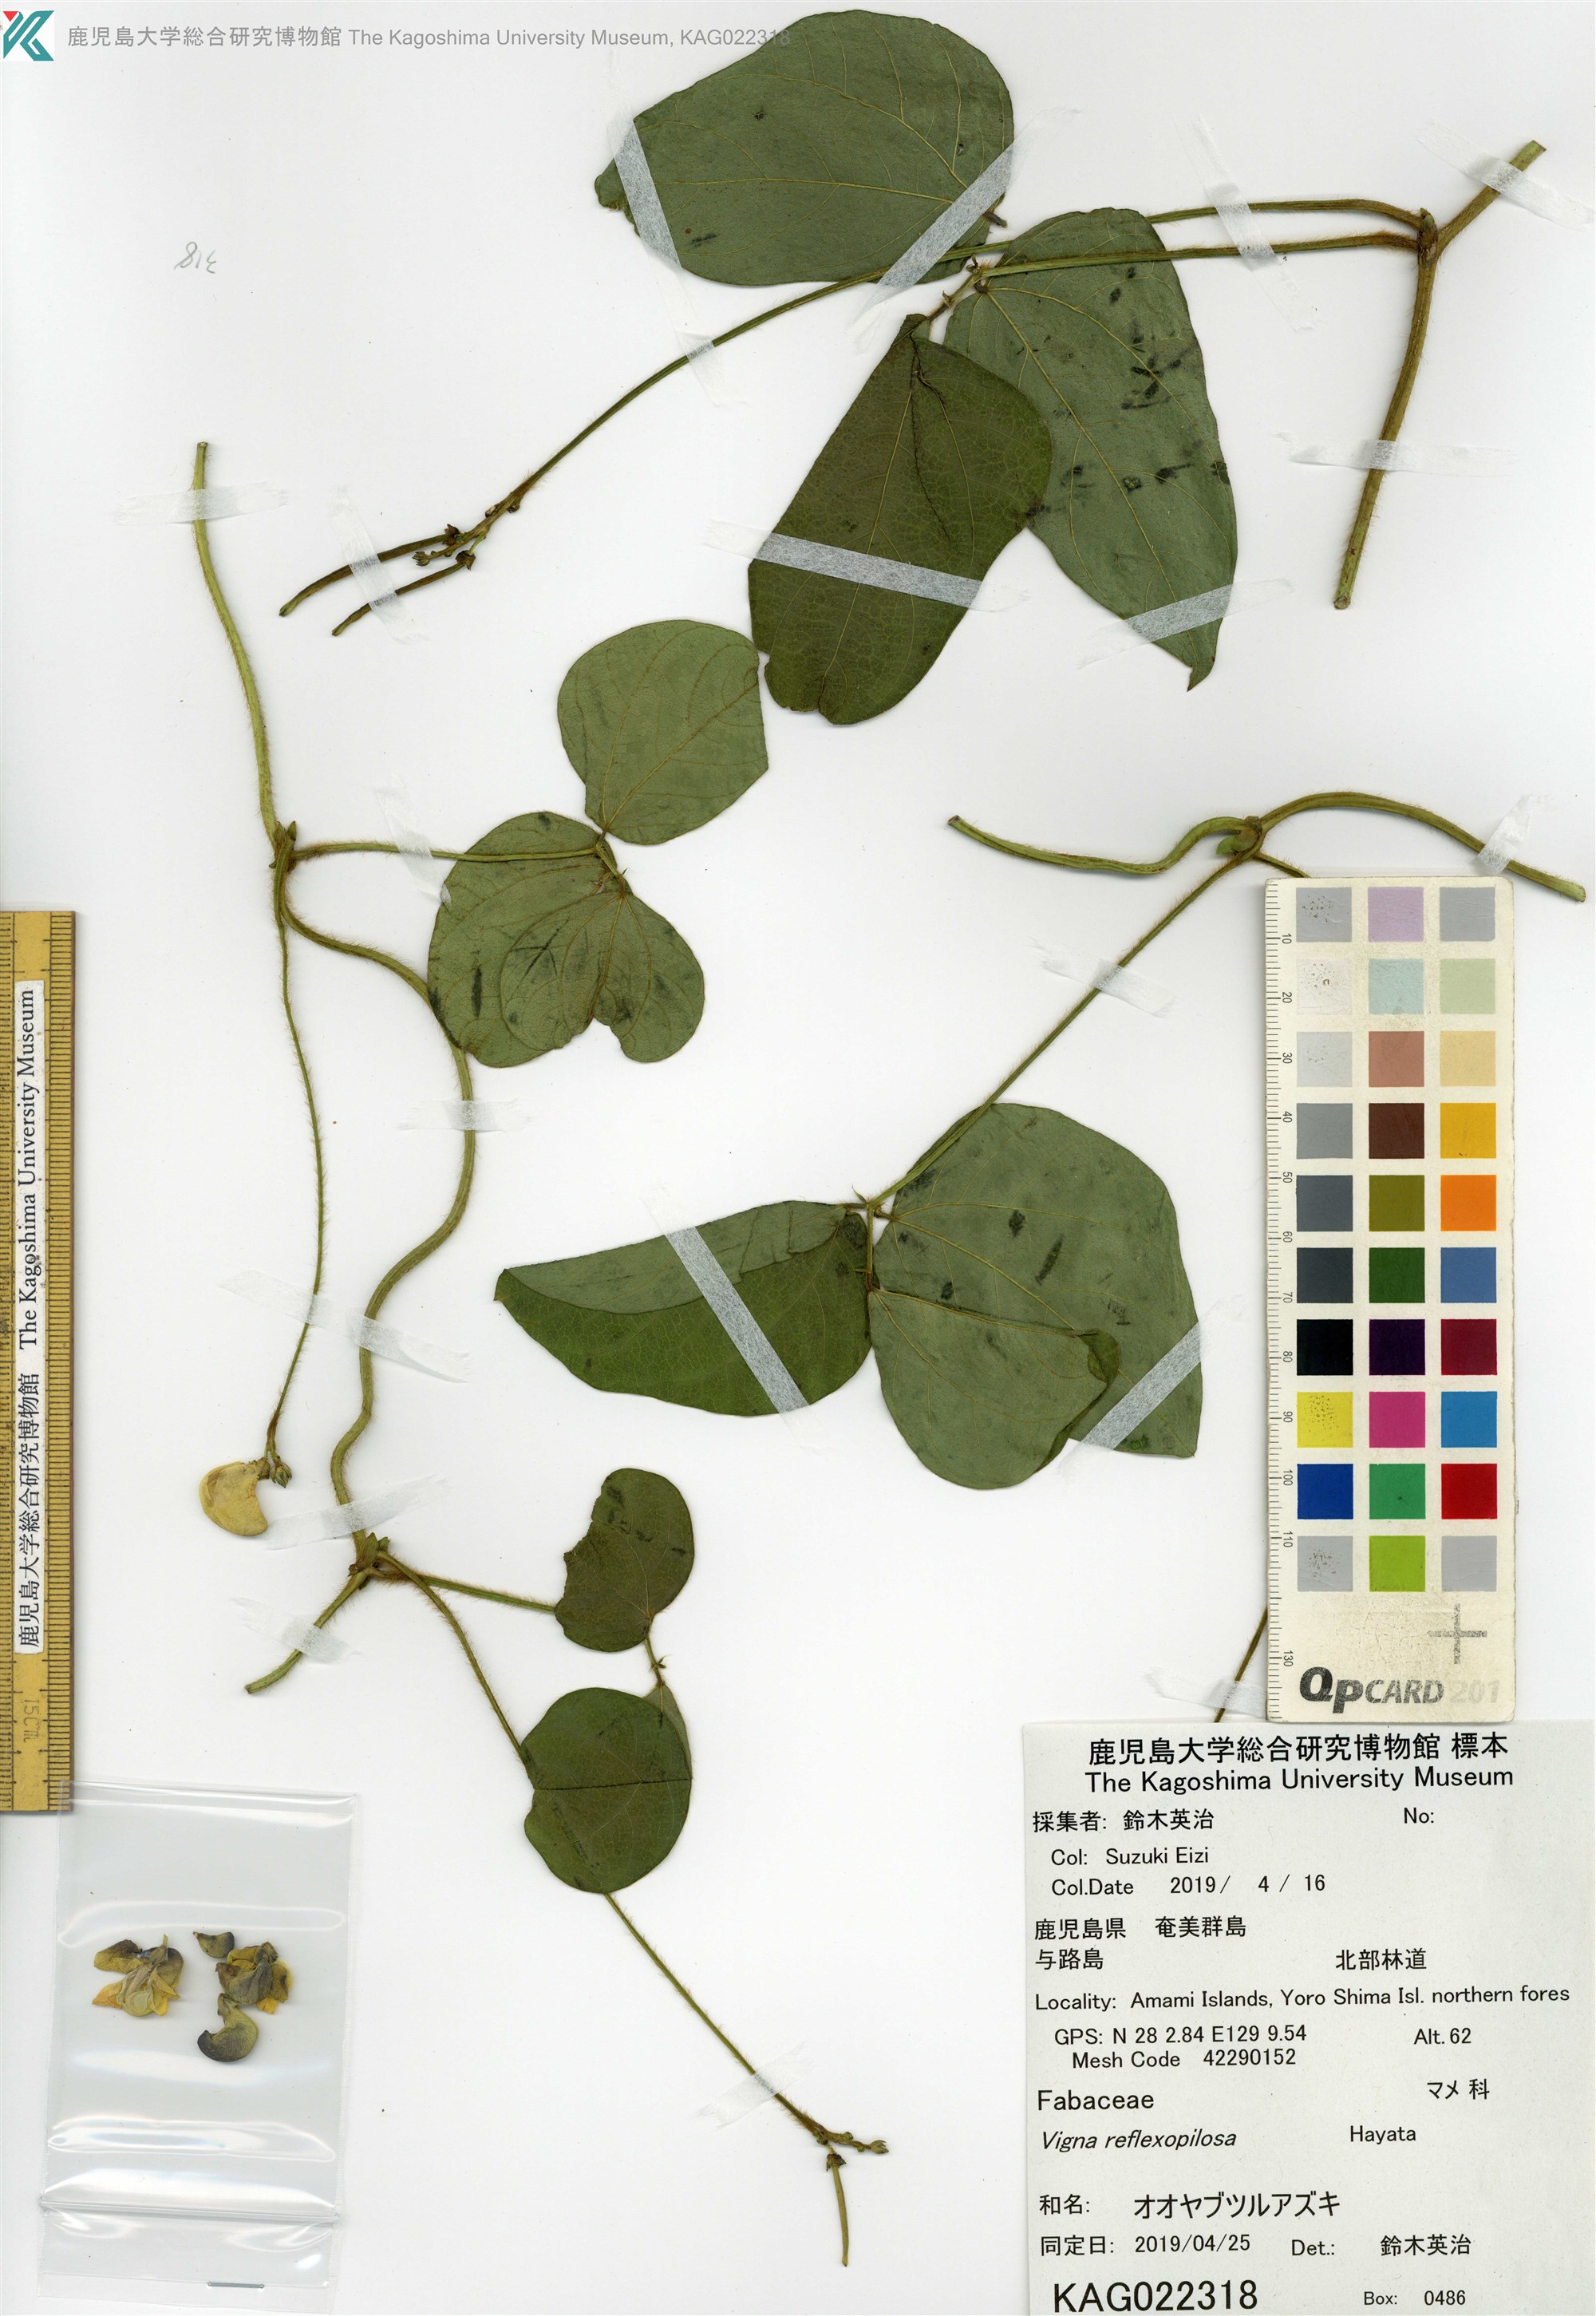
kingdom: Plantae
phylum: Tracheophyta
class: Magnoliopsida
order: Fabales
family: Fabaceae
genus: Vigna
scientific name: Vigna reflexopilosa
